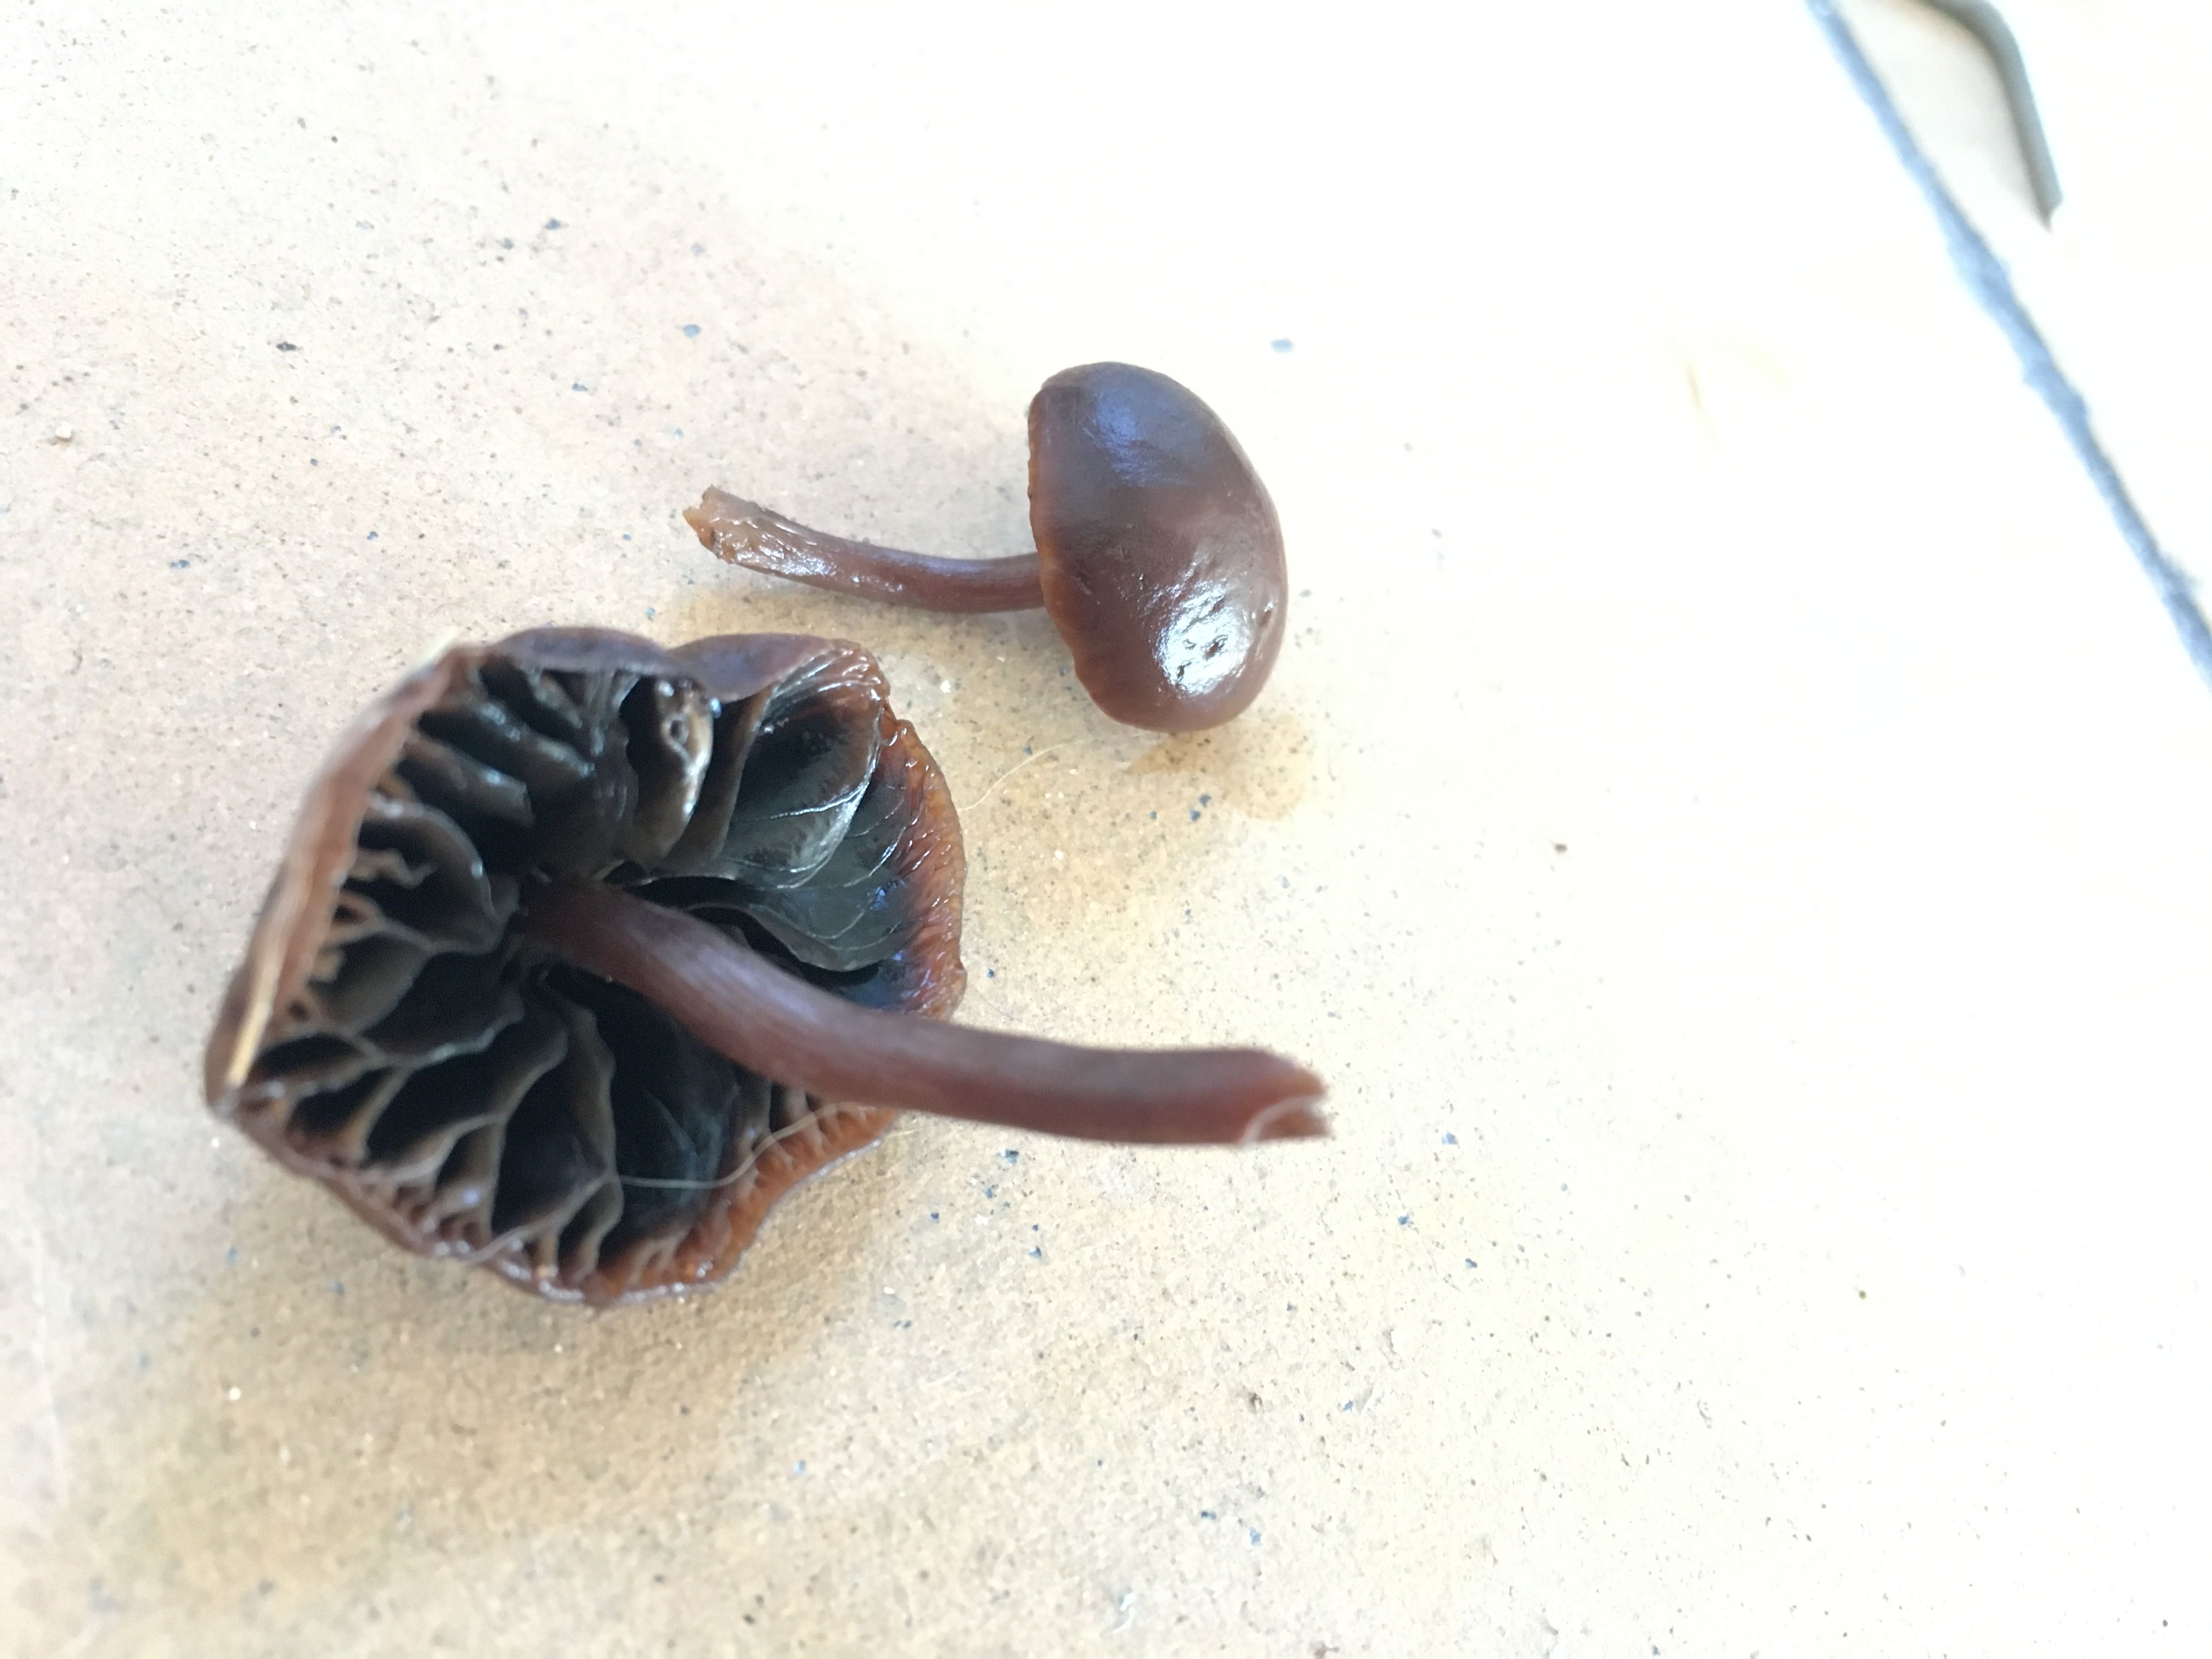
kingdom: Fungi
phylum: Basidiomycota
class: Agaricomycetes
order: Agaricales
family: Strophariaceae
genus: Deconica
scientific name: Deconica
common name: stråhat
